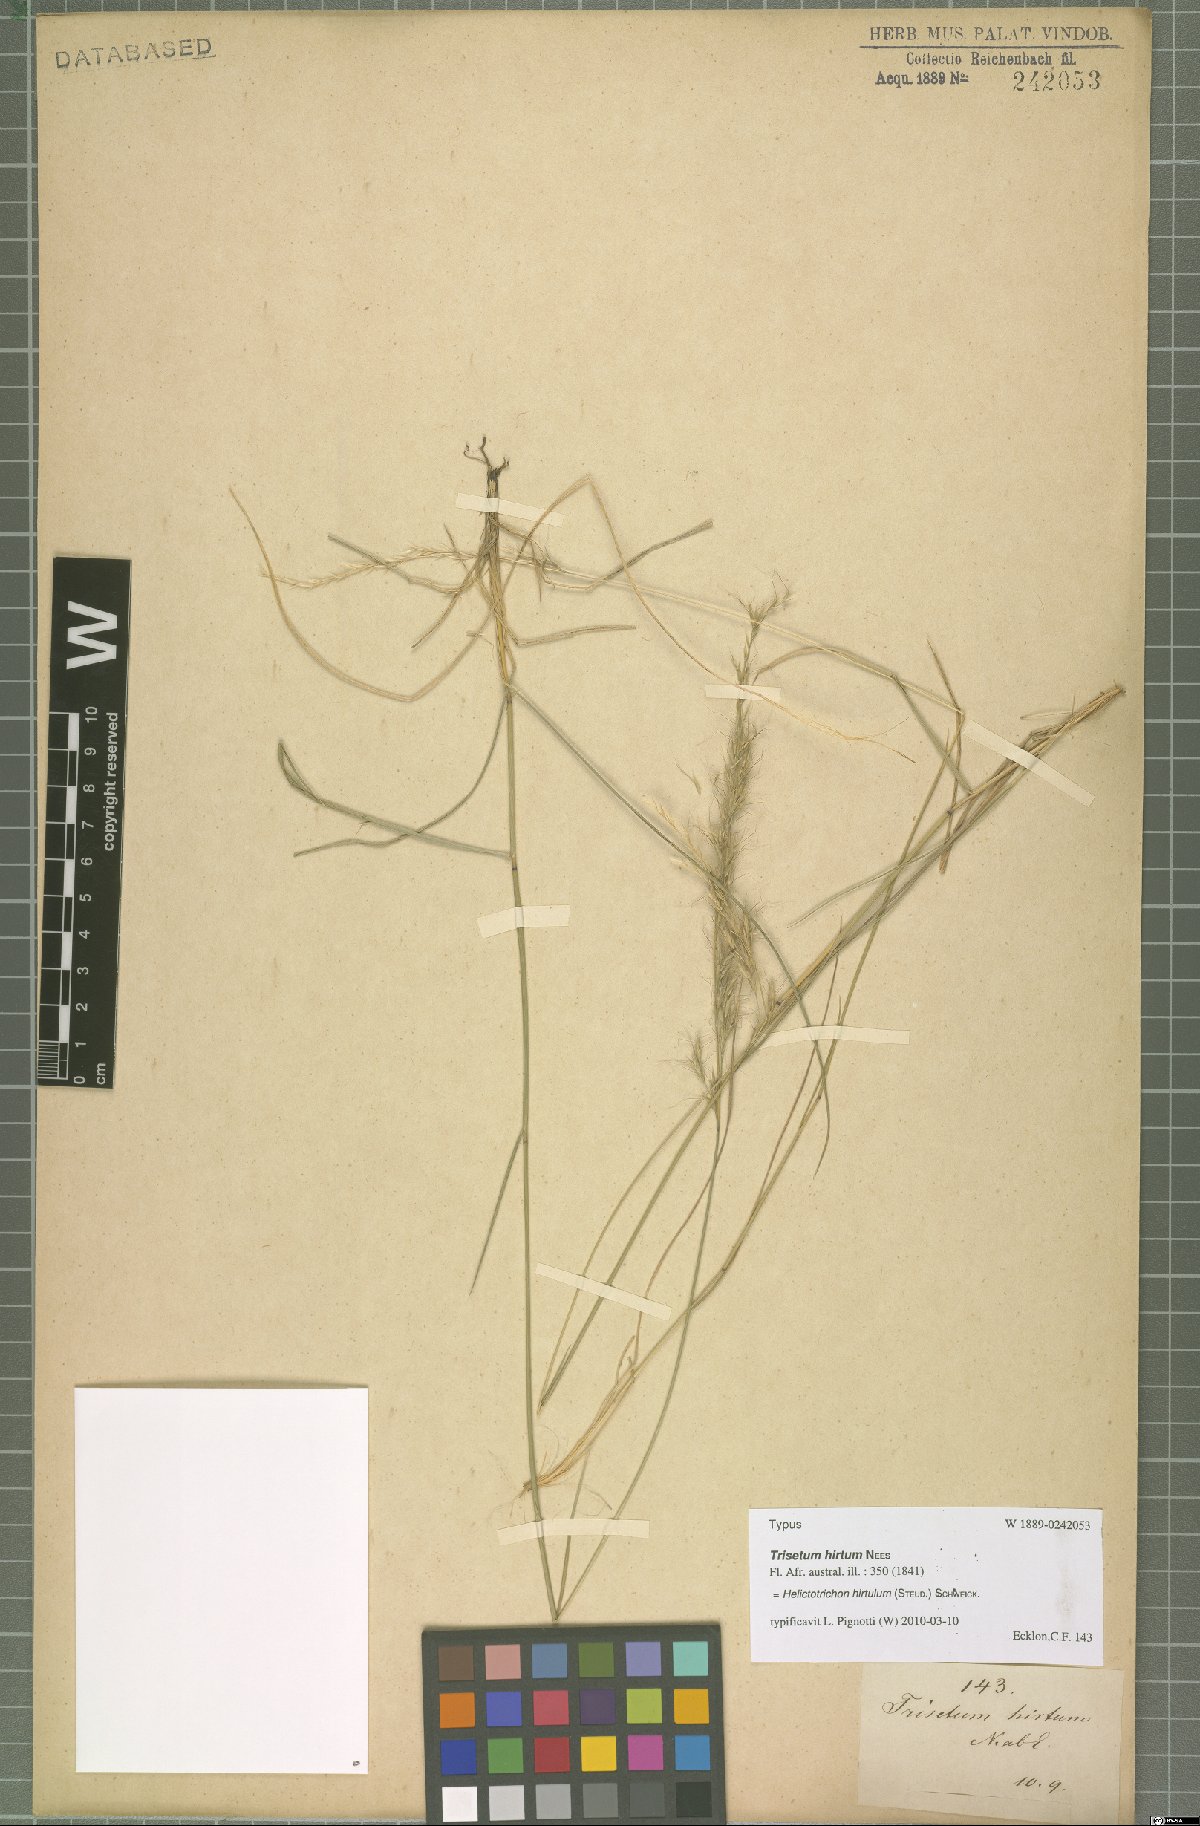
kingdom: Plantae
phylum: Tracheophyta
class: Liliopsida
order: Poales
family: Poaceae
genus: Trisetopsis
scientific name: Trisetopsis hirtula
